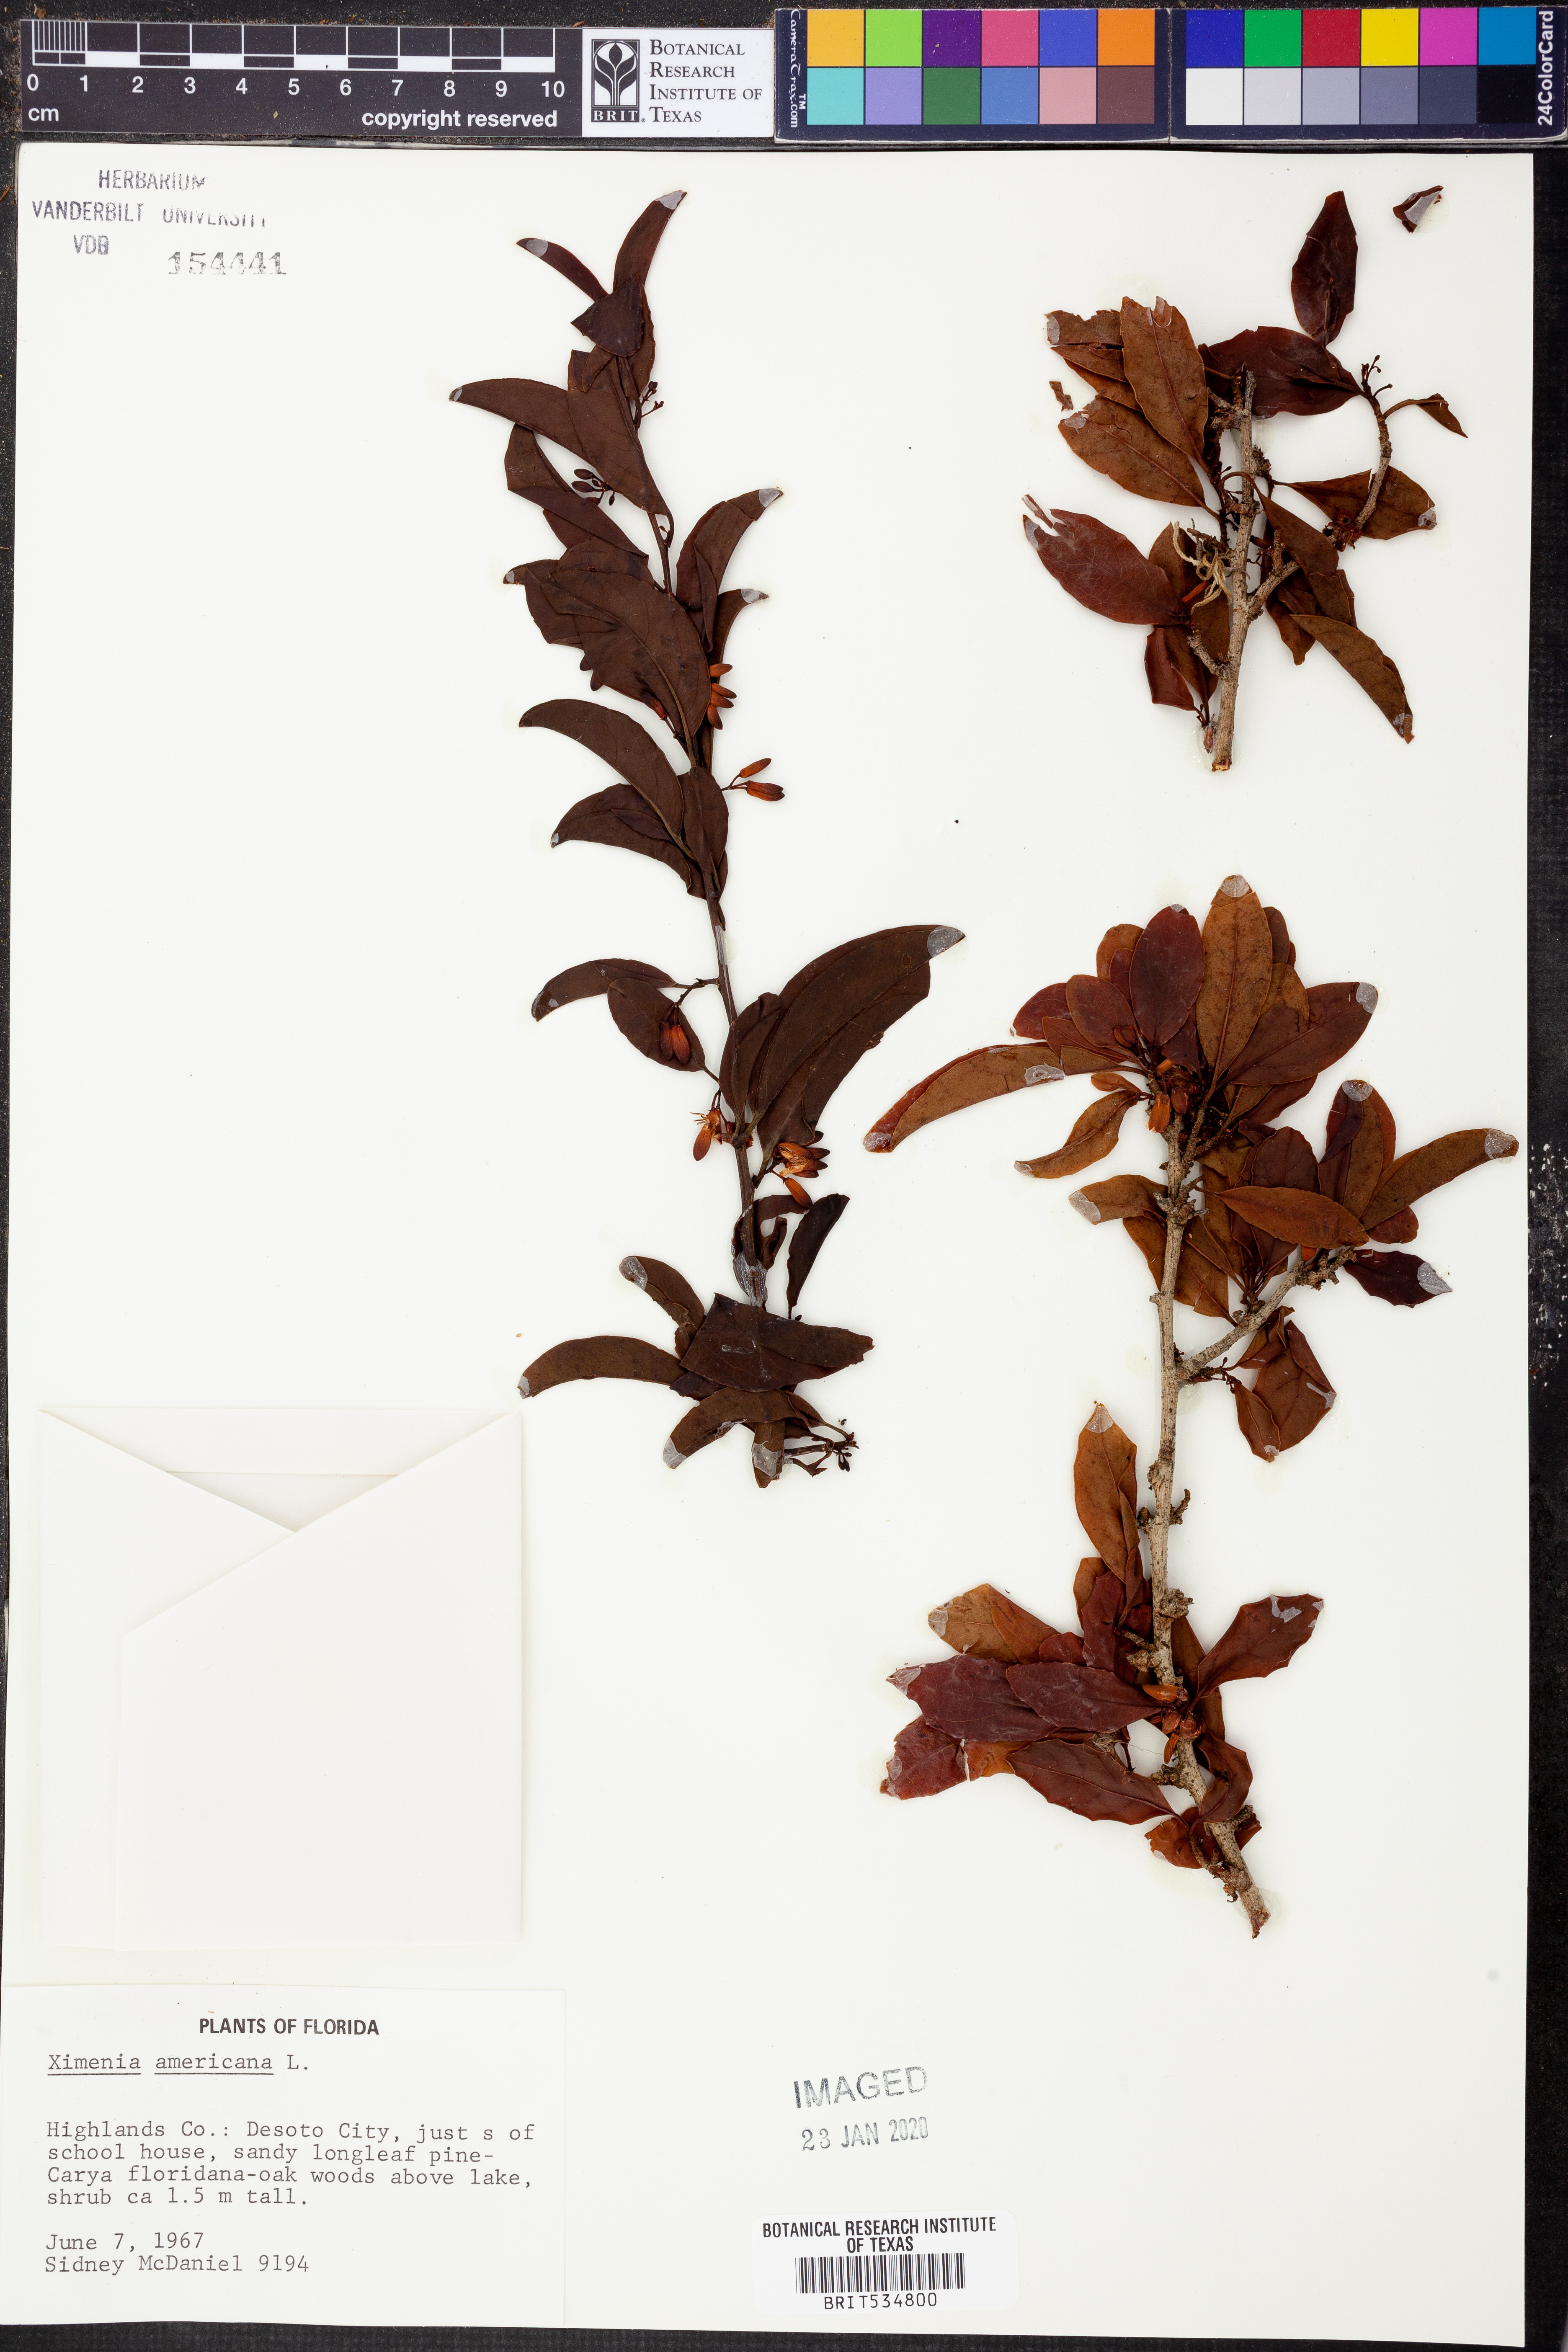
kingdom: Plantae
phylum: Tracheophyta
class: Magnoliopsida
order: Santalales
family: Ximeniaceae
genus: Ximenia
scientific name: Ximenia americana
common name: Tallowwood
